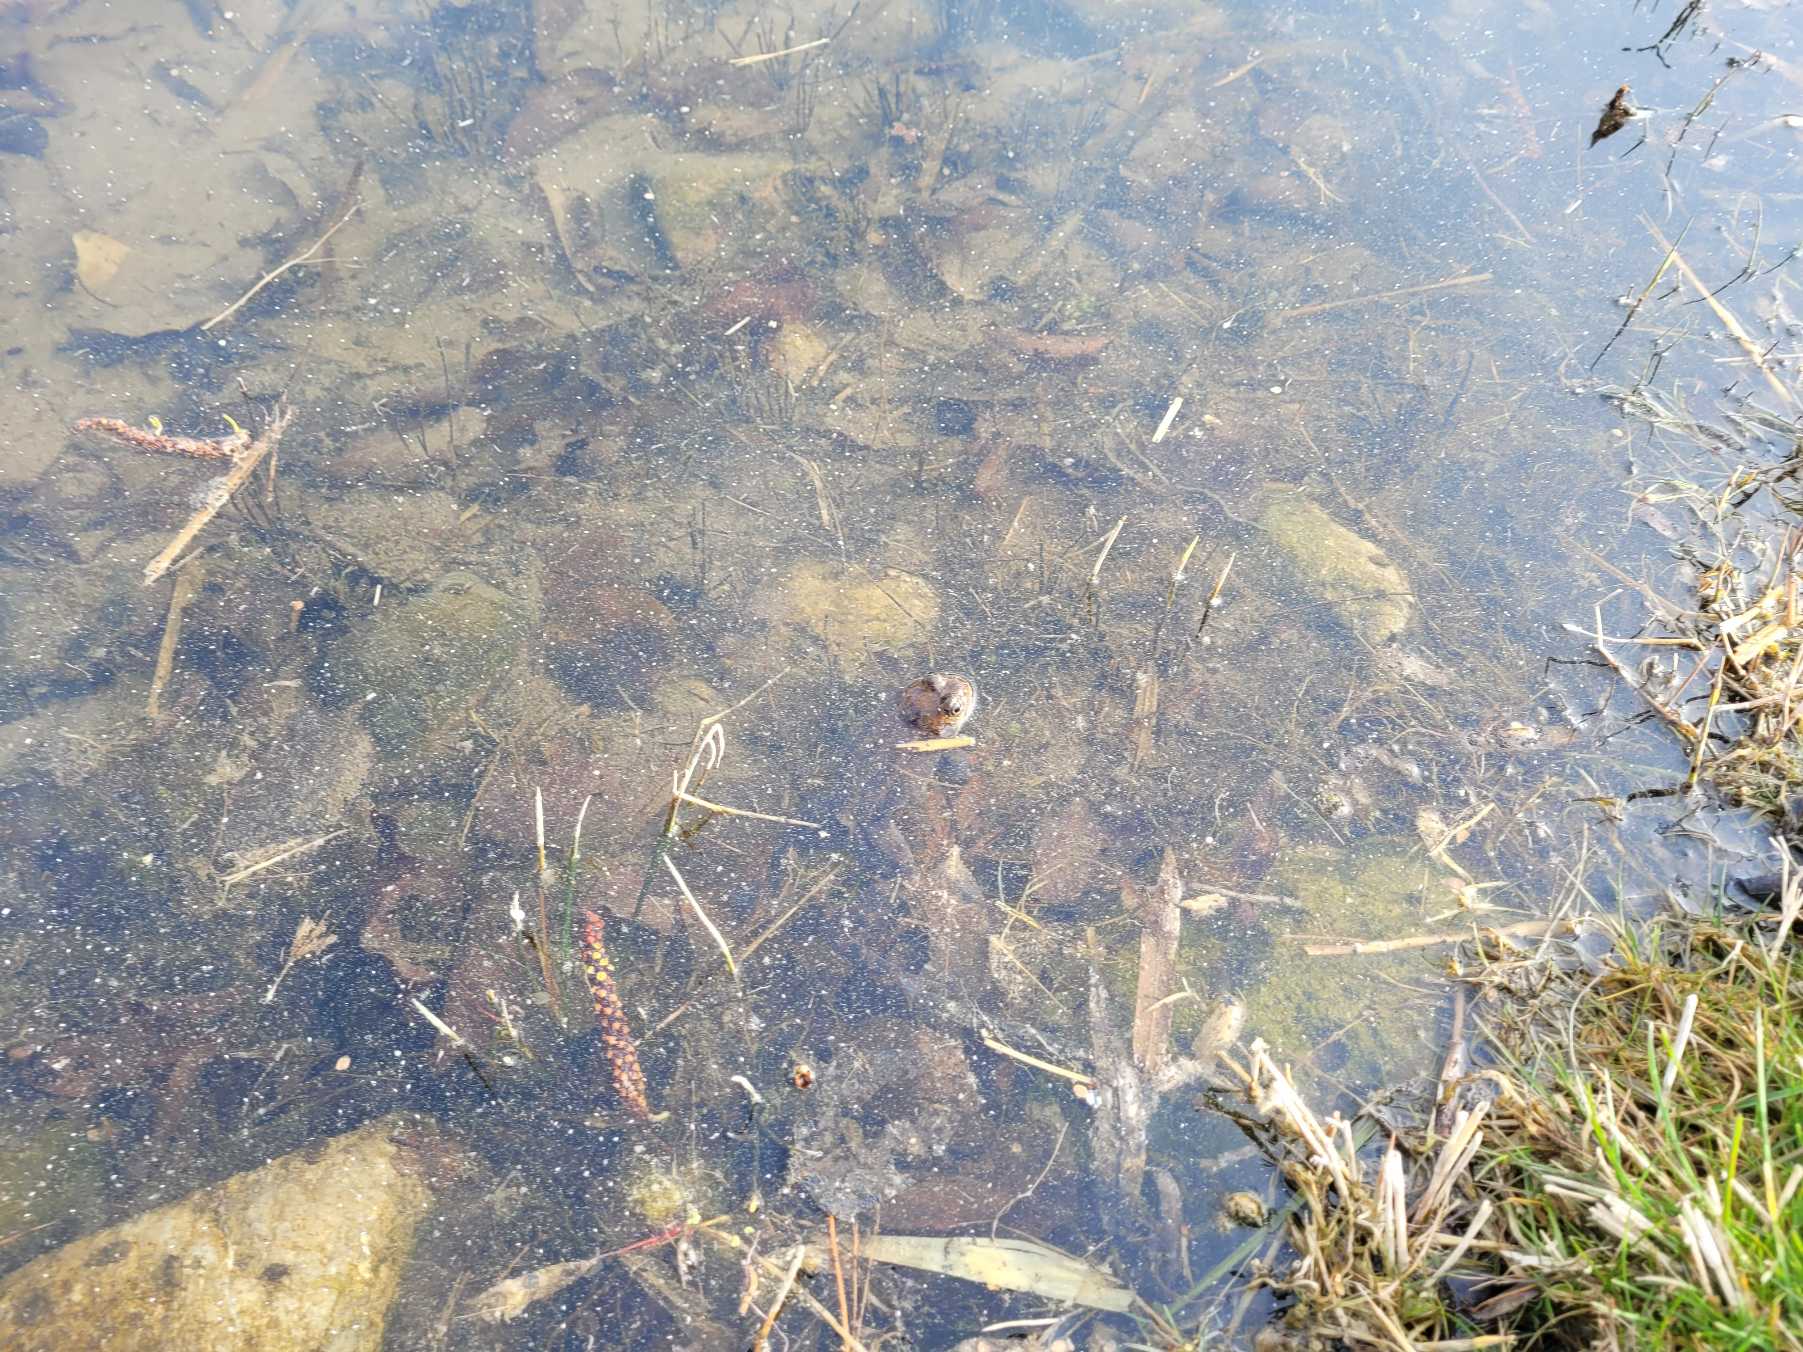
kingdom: Animalia
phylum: Chordata
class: Amphibia
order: Anura
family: Ranidae
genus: Rana
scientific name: Rana temporaria
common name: Butsnudet frø
